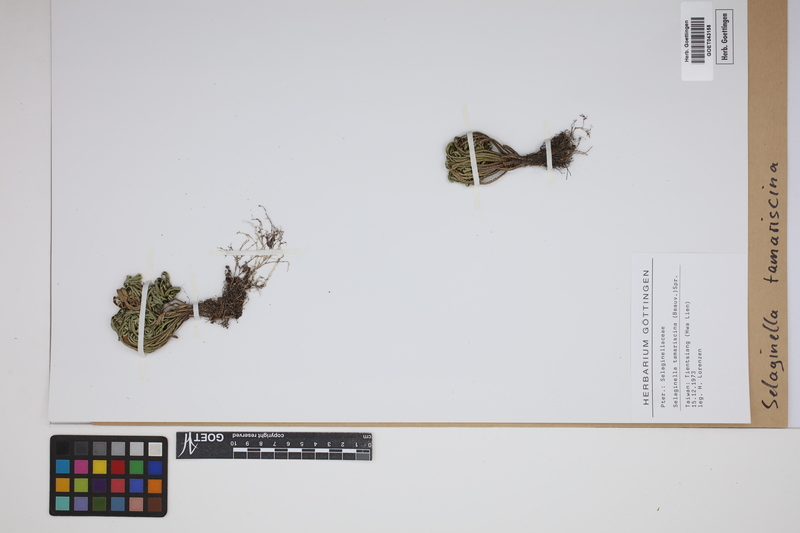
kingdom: Plantae
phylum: Tracheophyta
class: Lycopodiopsida
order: Selaginellales
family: Selaginellaceae
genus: Selaginella
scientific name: Selaginella tamariscina
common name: Little-club-moss
